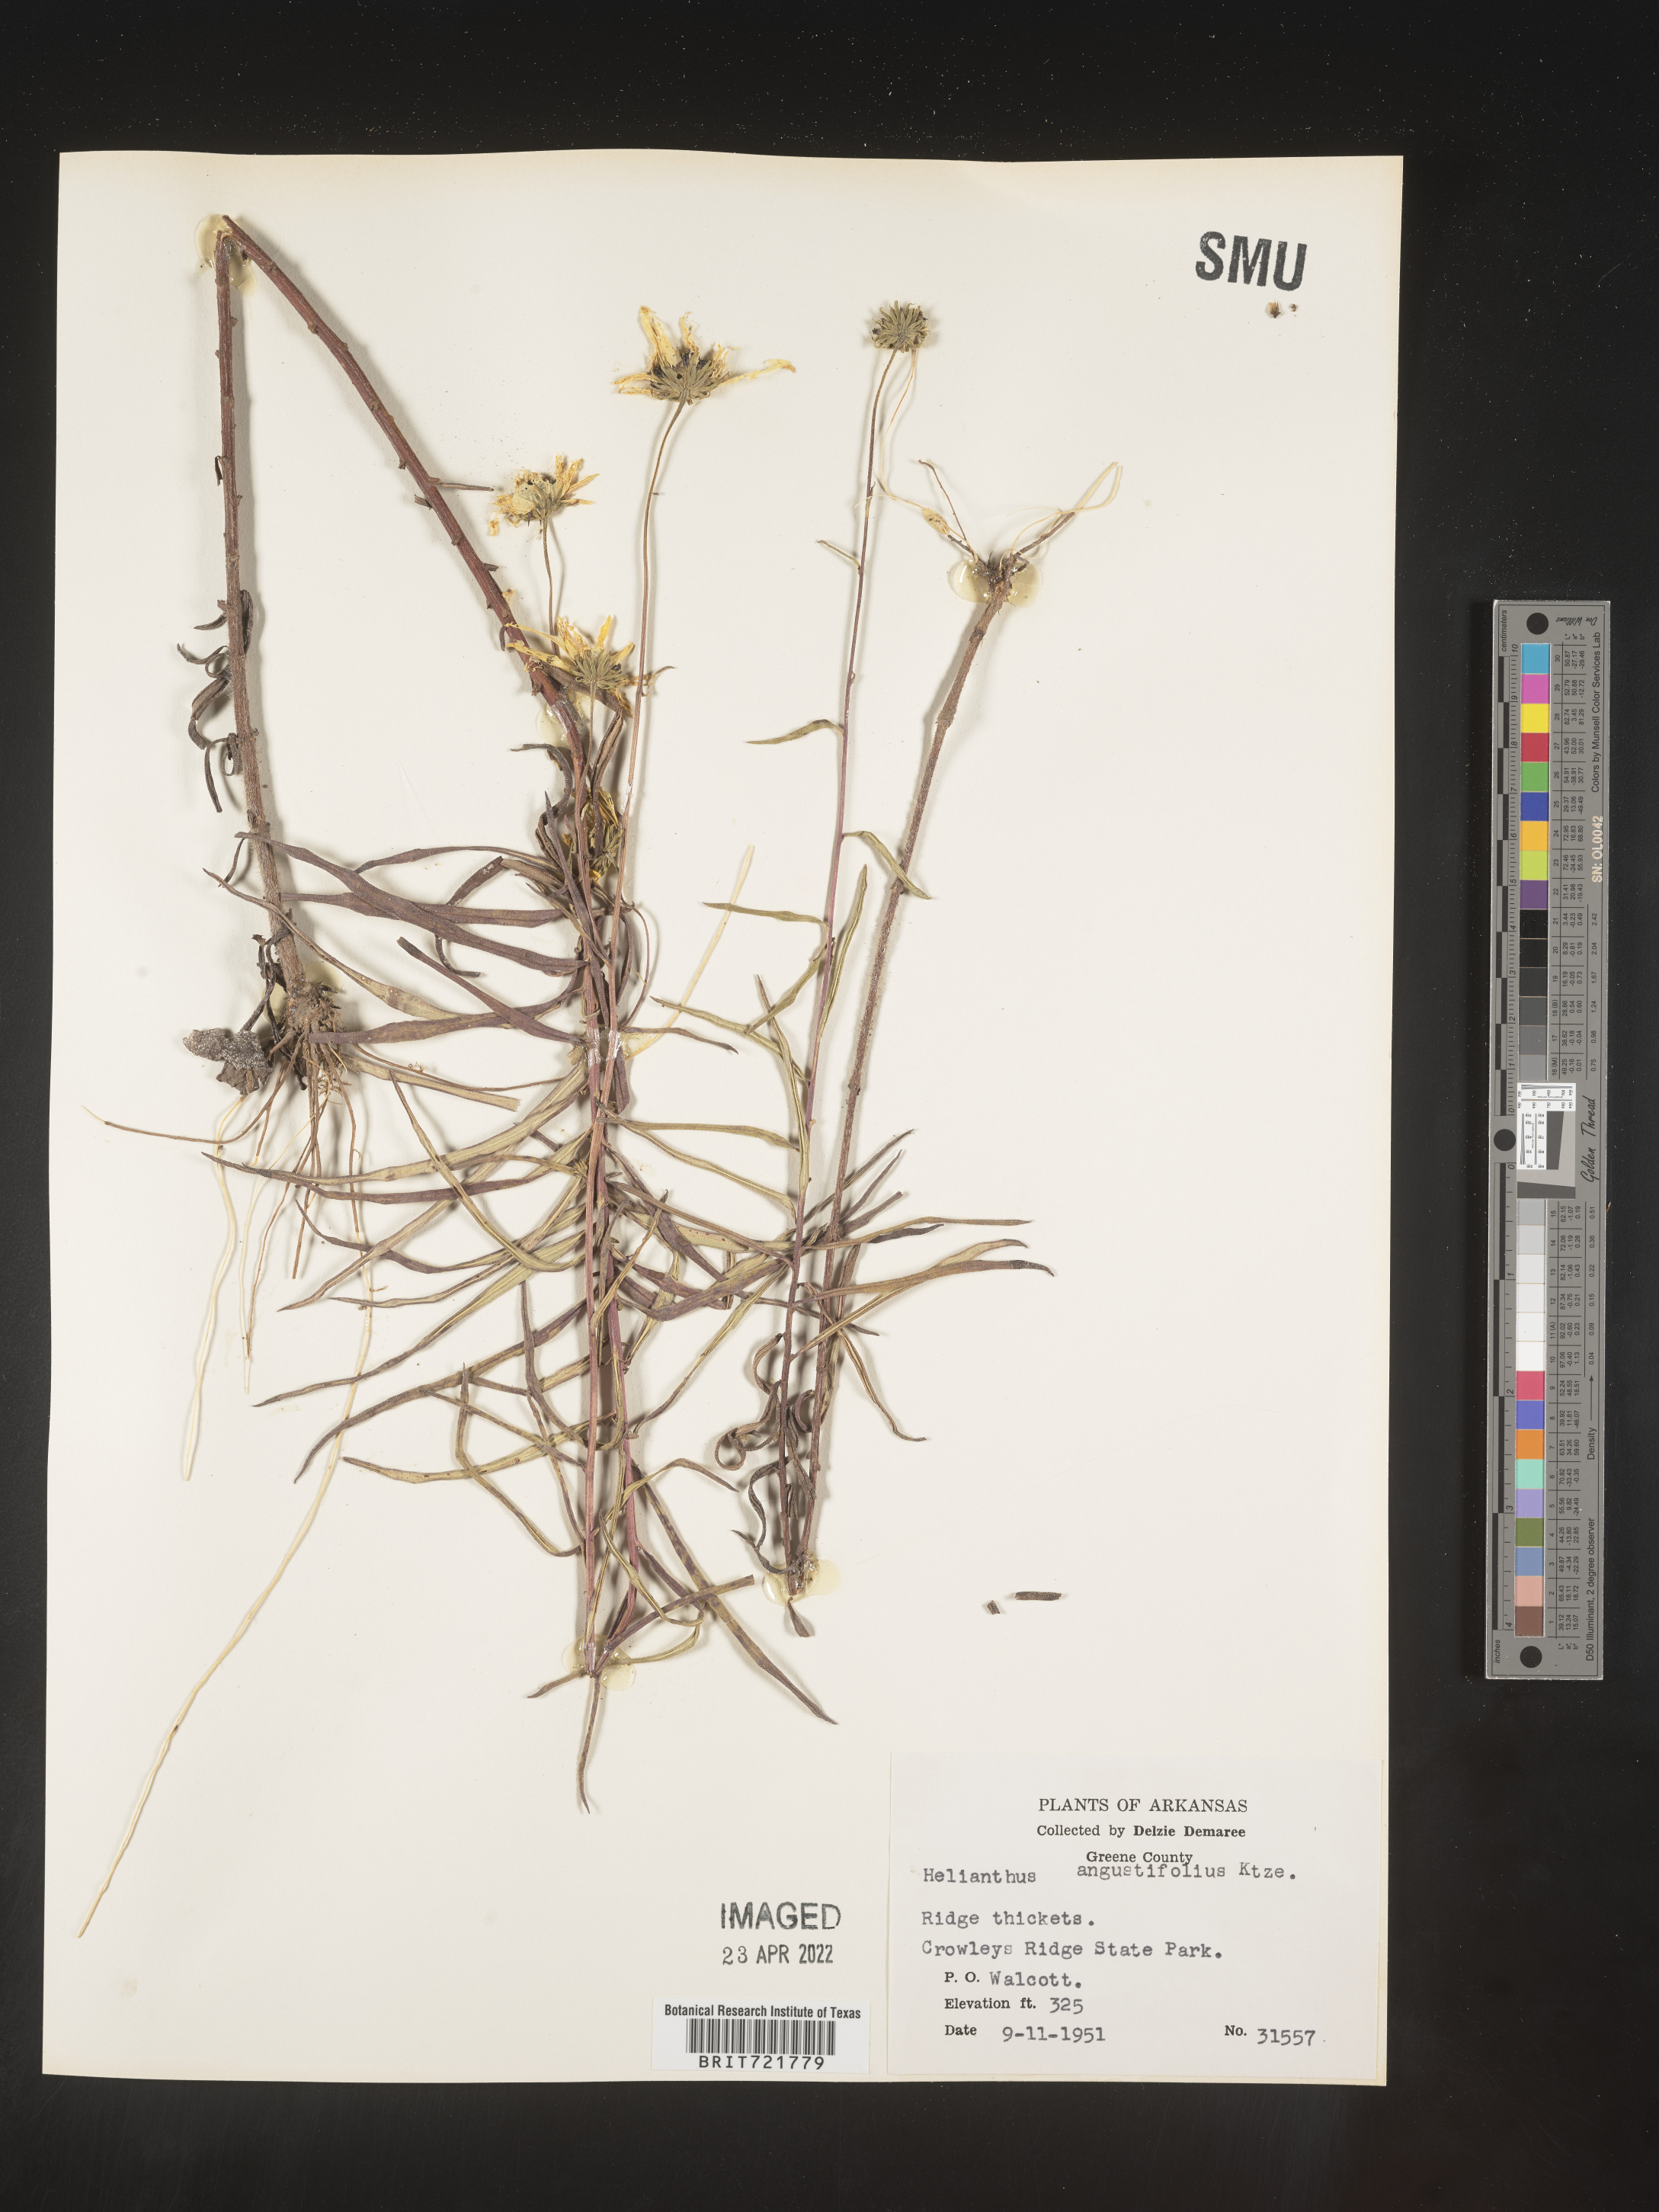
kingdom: Plantae
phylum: Tracheophyta
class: Magnoliopsida
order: Asterales
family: Asteraceae
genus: Helianthus
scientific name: Helianthus angustifolius
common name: Swamp sunflower
